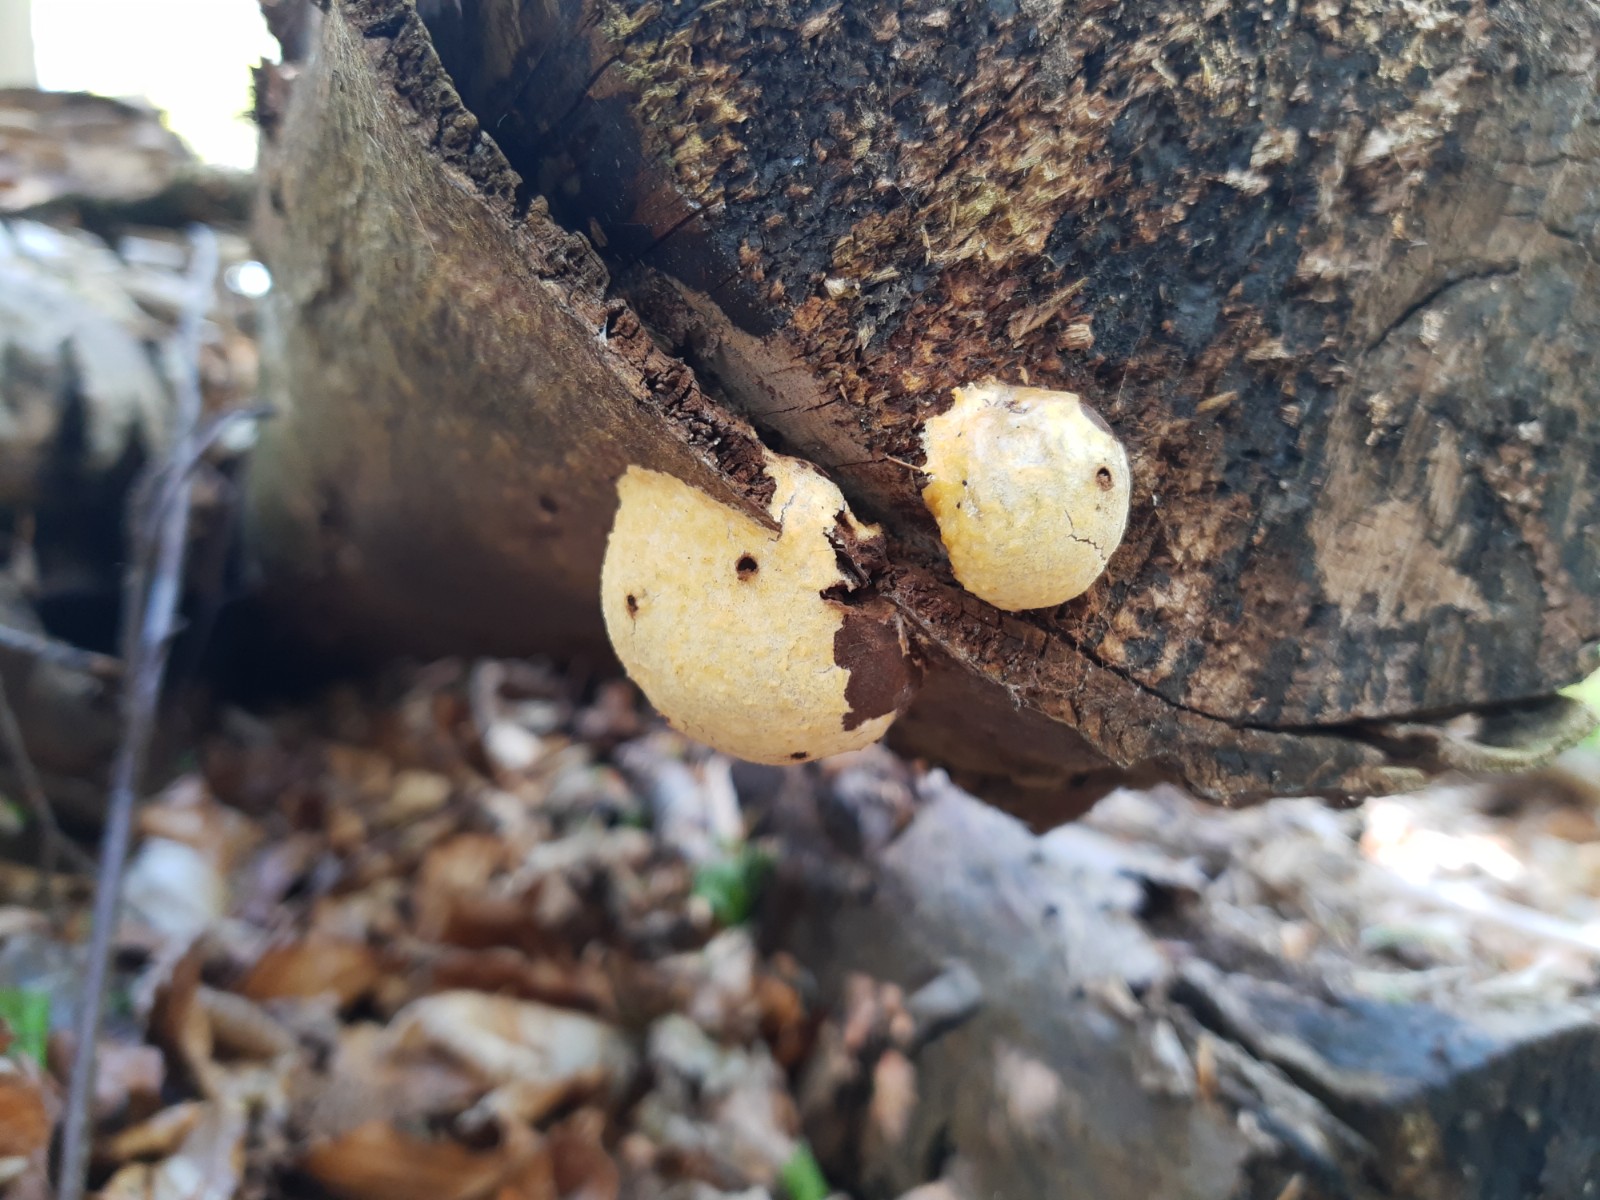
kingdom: Protozoa
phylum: Mycetozoa
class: Myxomycetes
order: Cribrariales
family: Tubiferaceae
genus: Reticularia
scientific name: Reticularia lycoperdon
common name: skinnende støvpude
